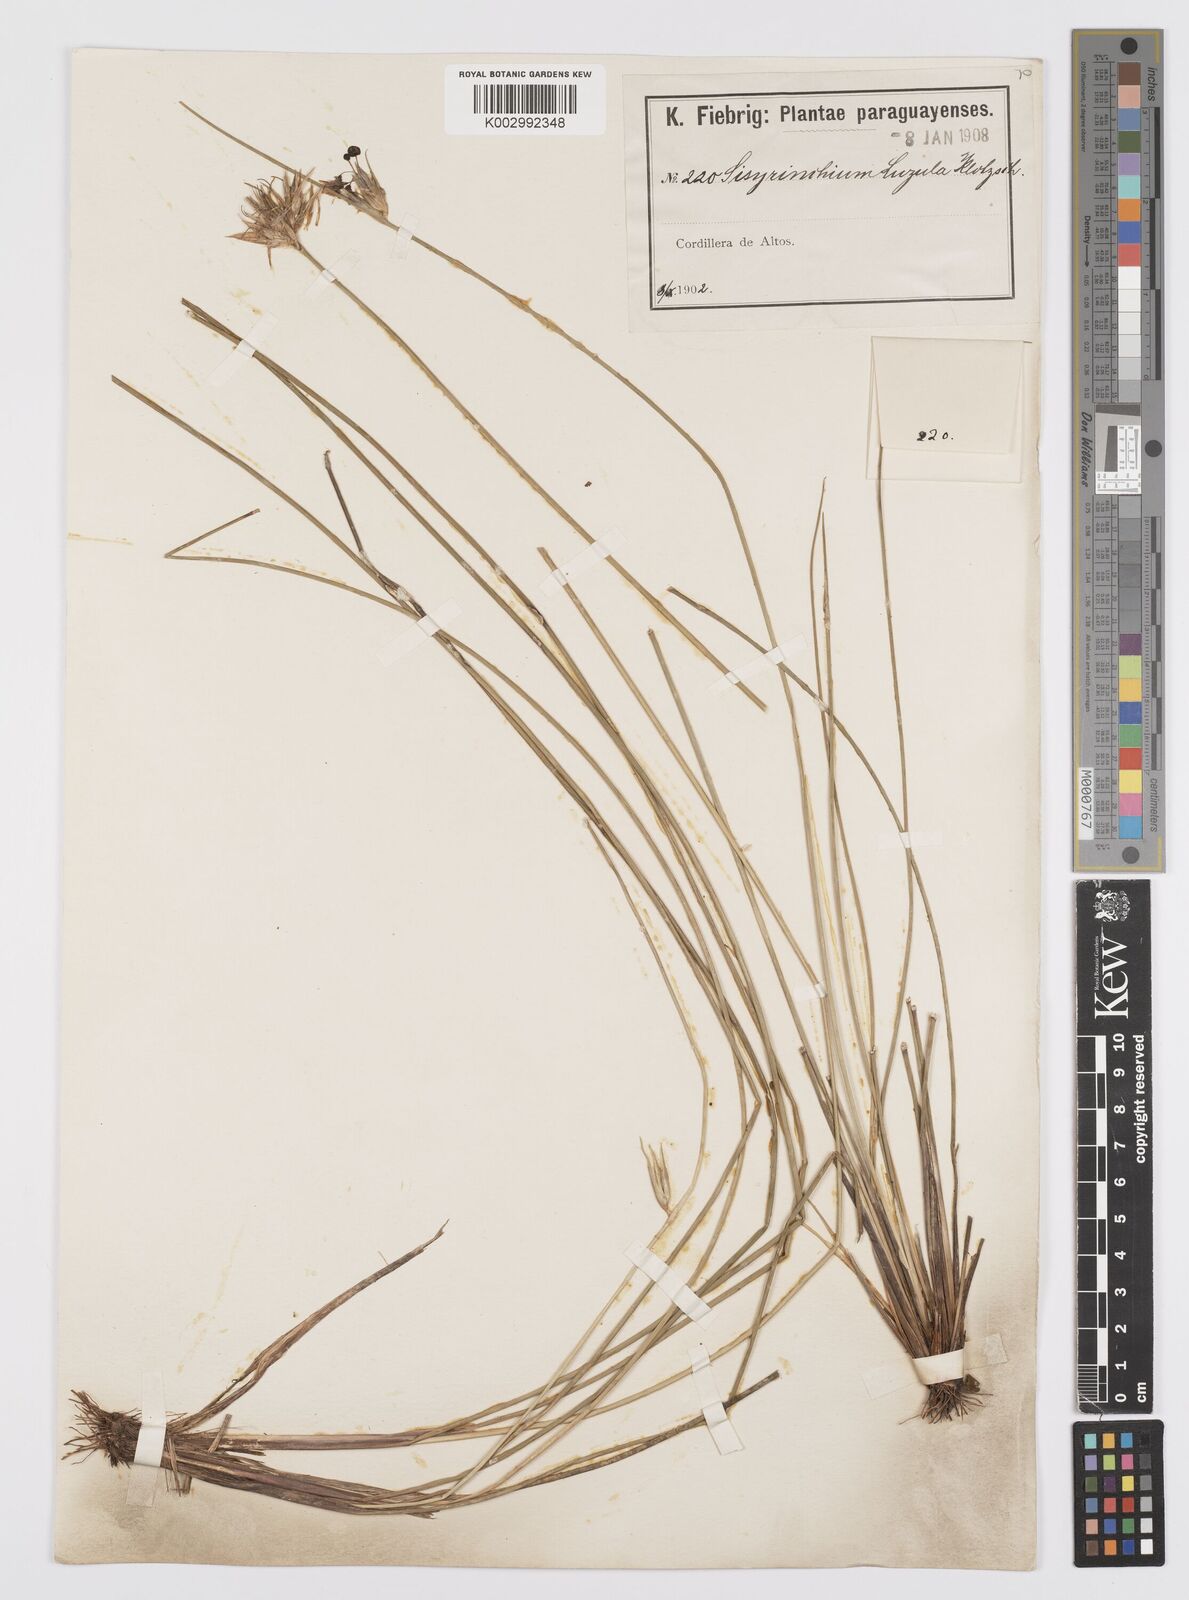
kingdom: Plantae
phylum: Tracheophyta
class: Liliopsida
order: Asparagales
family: Iridaceae
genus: Sisyrinchium
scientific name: Sisyrinchium luzula
